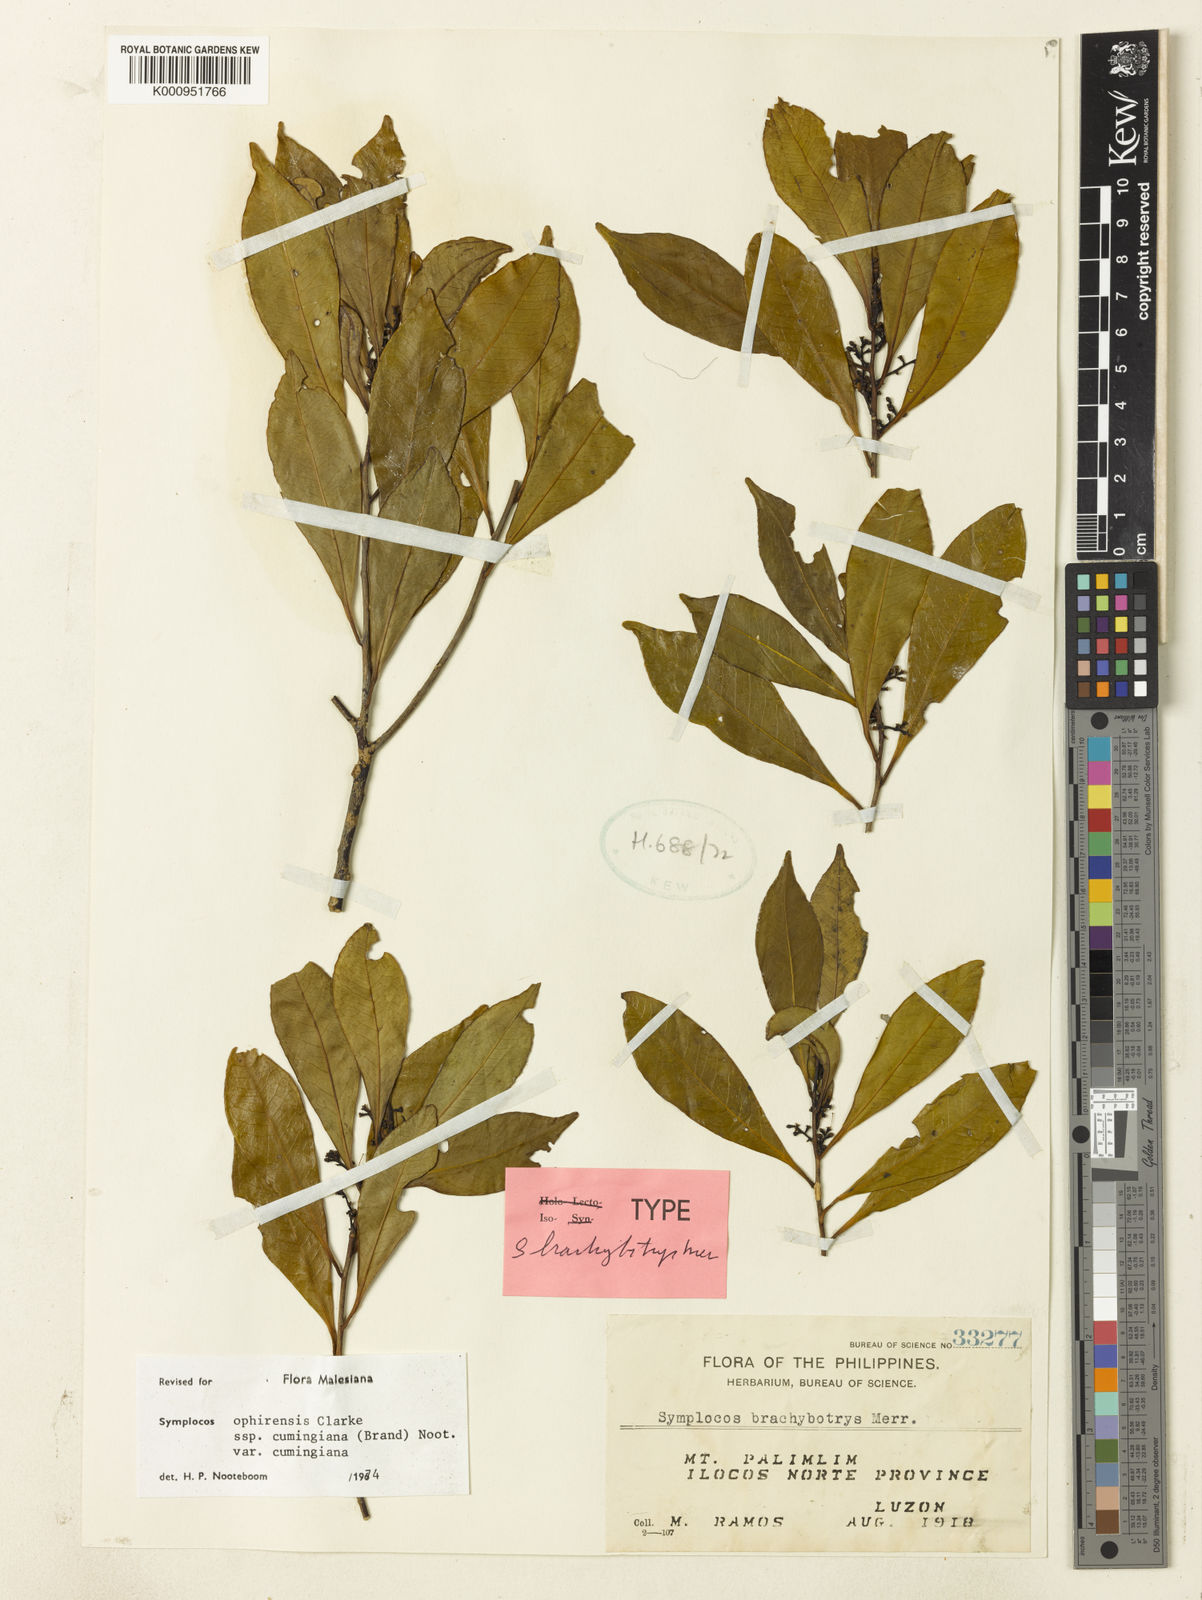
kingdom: Plantae
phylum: Tracheophyta
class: Magnoliopsida
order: Ericales
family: Symplocaceae
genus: Symplocos
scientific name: Symplocos ophirensis
